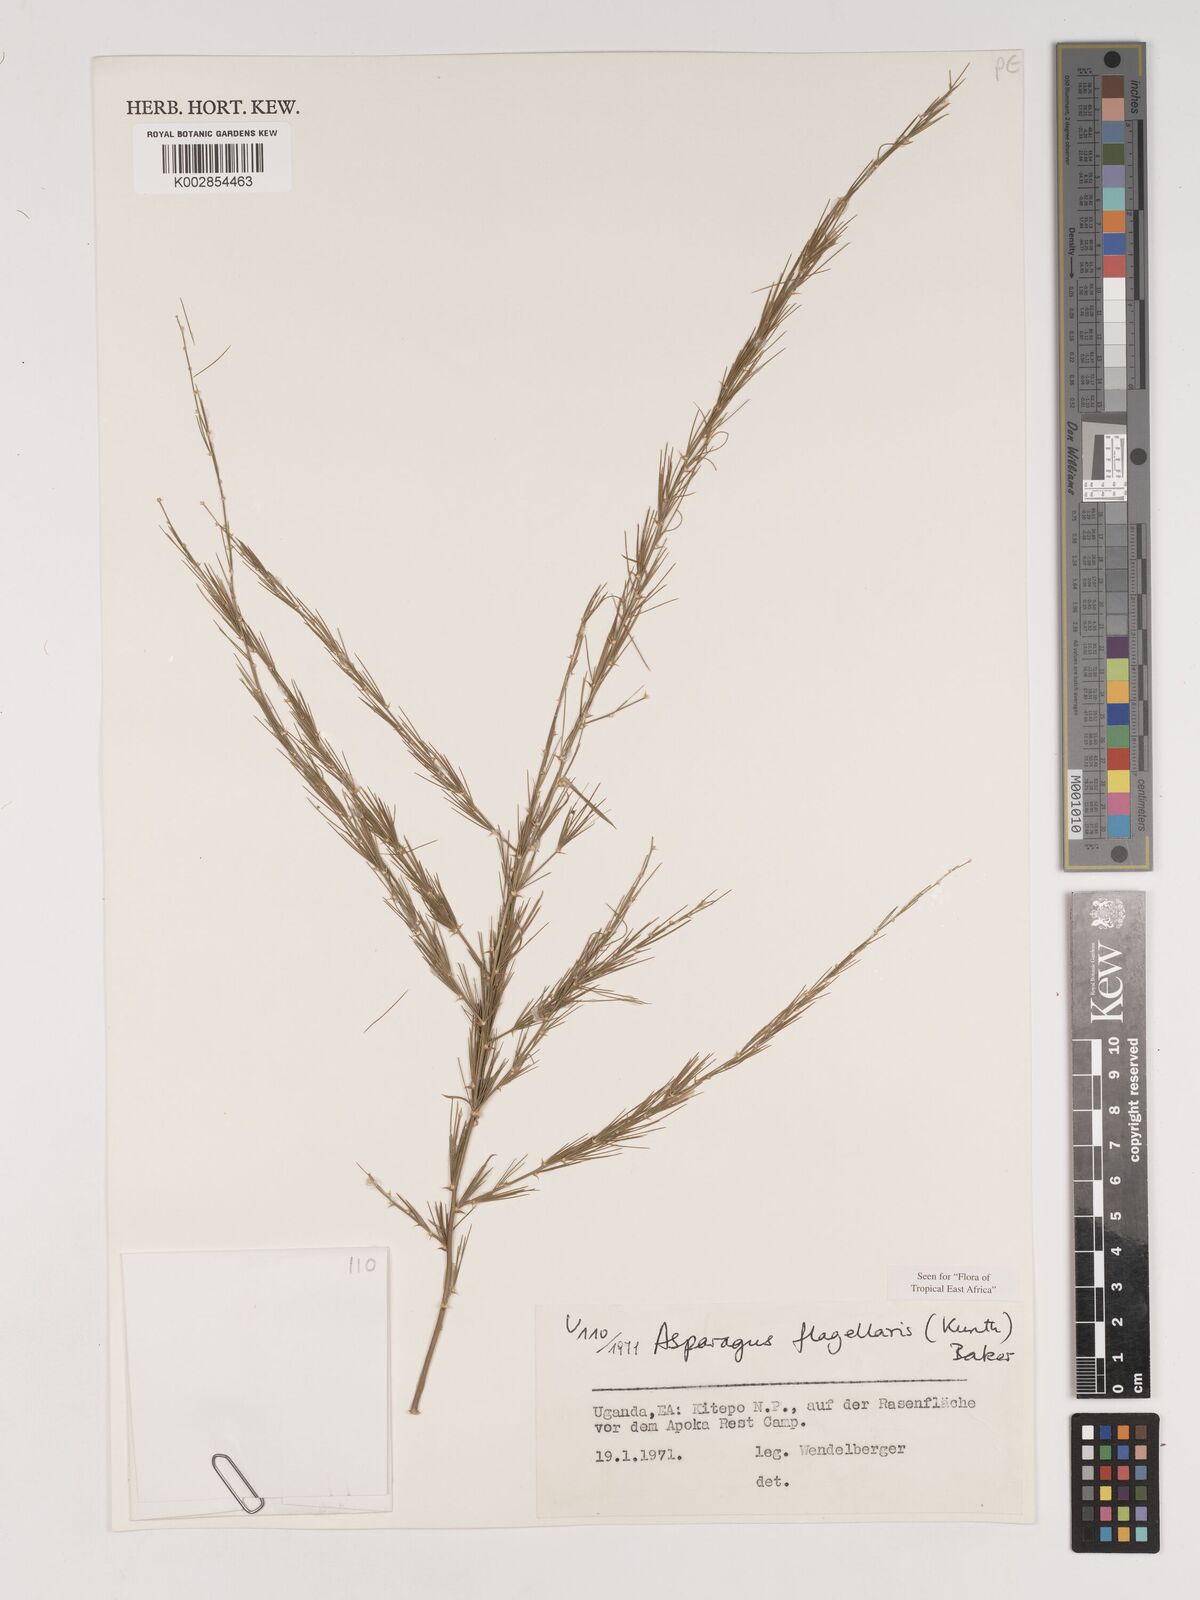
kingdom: Plantae
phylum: Tracheophyta
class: Liliopsida
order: Asparagales
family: Asparagaceae
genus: Asparagus
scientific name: Asparagus flagellaris
